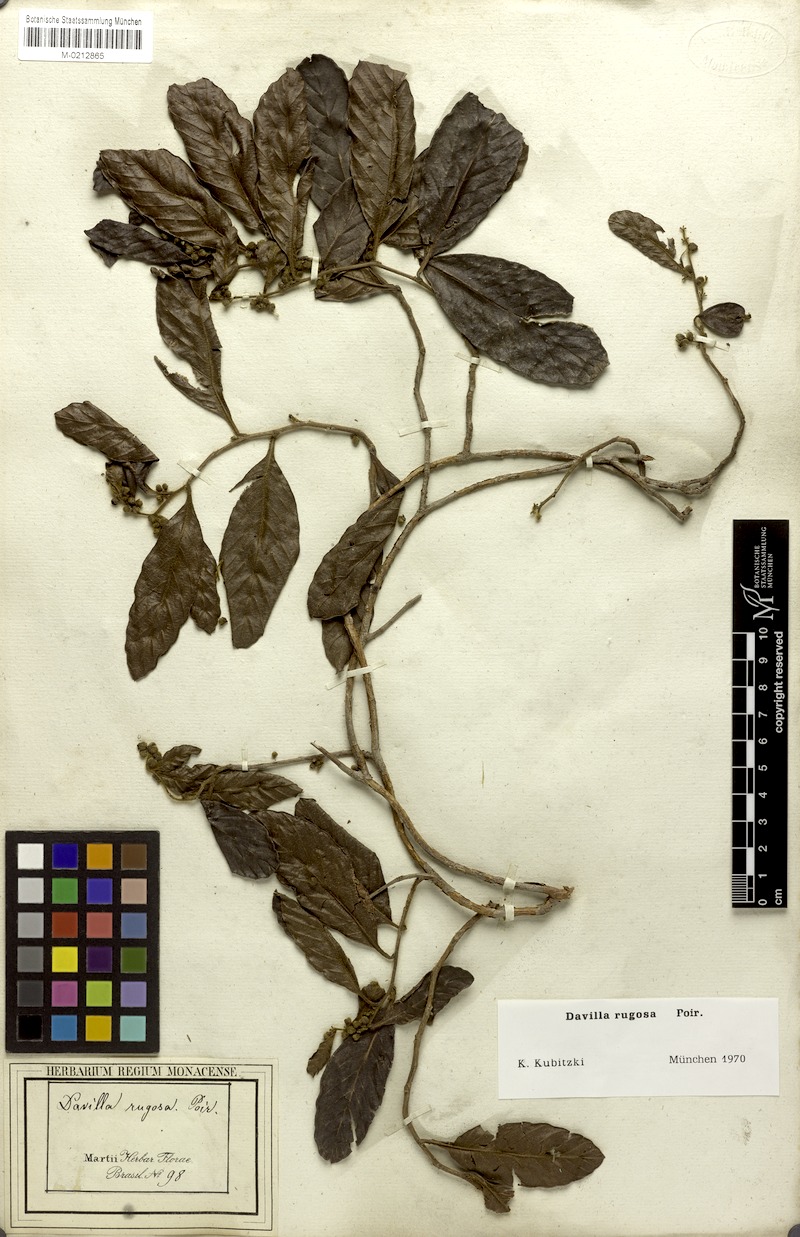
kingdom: Plantae
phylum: Tracheophyta
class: Magnoliopsida
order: Dilleniales
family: Dilleniaceae
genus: Davilla
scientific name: Davilla rugosa
